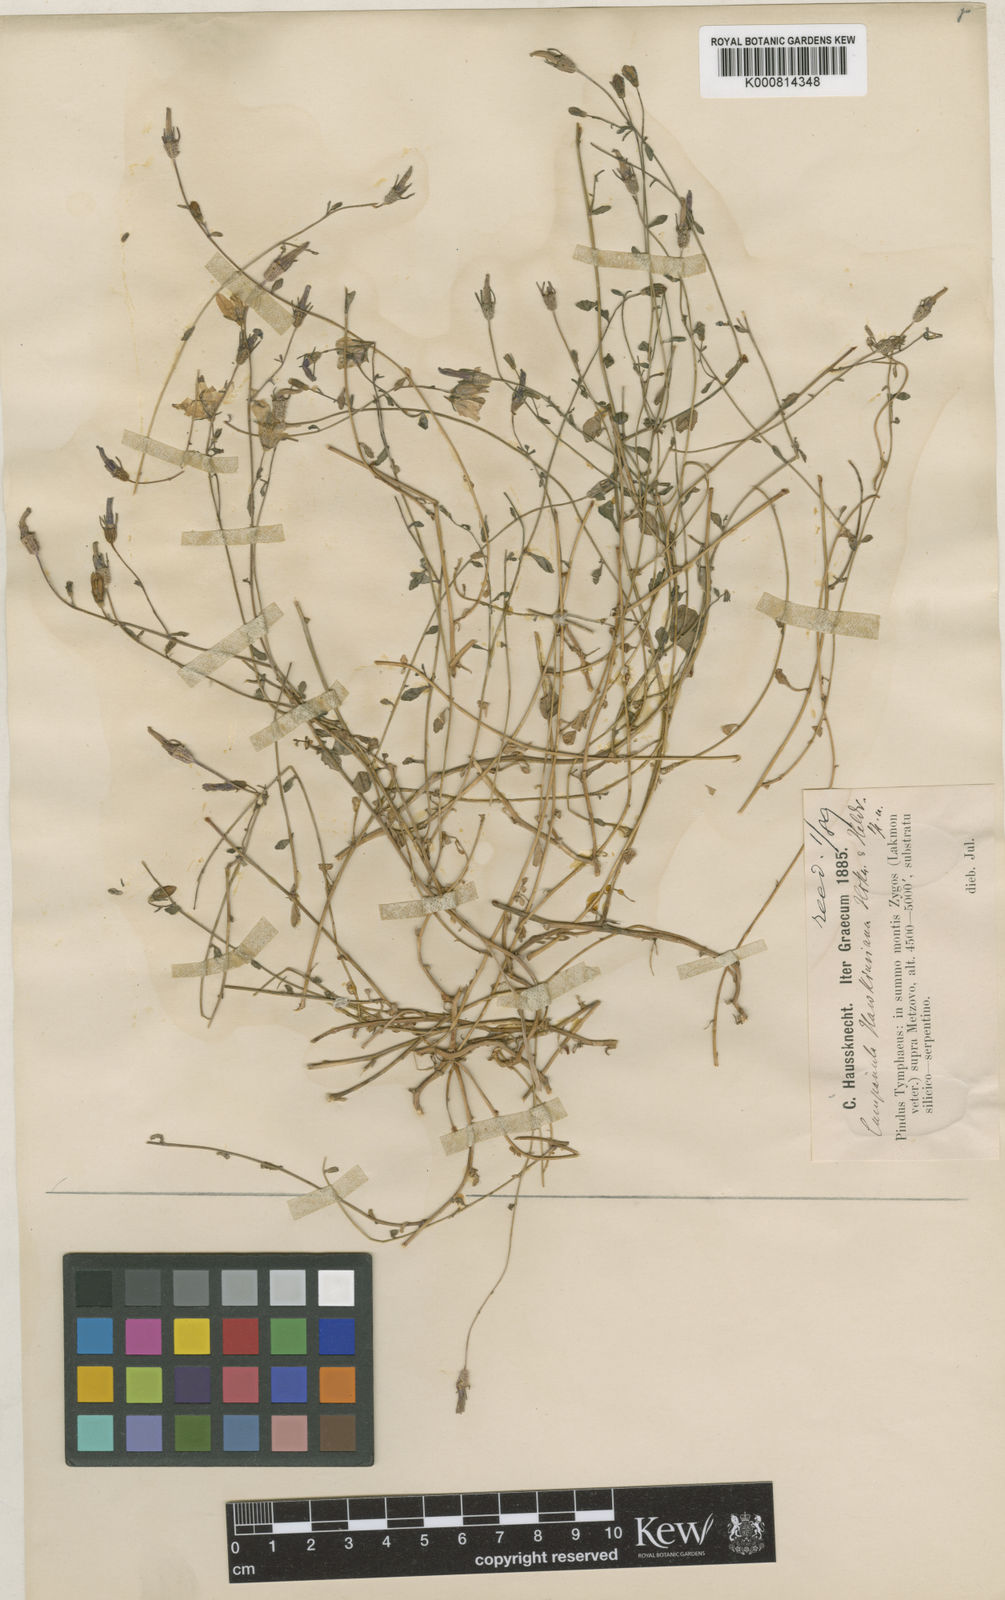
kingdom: Plantae
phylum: Tracheophyta
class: Magnoliopsida
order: Asterales
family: Campanulaceae
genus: Campanula
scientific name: Campanula hawkinsiana
